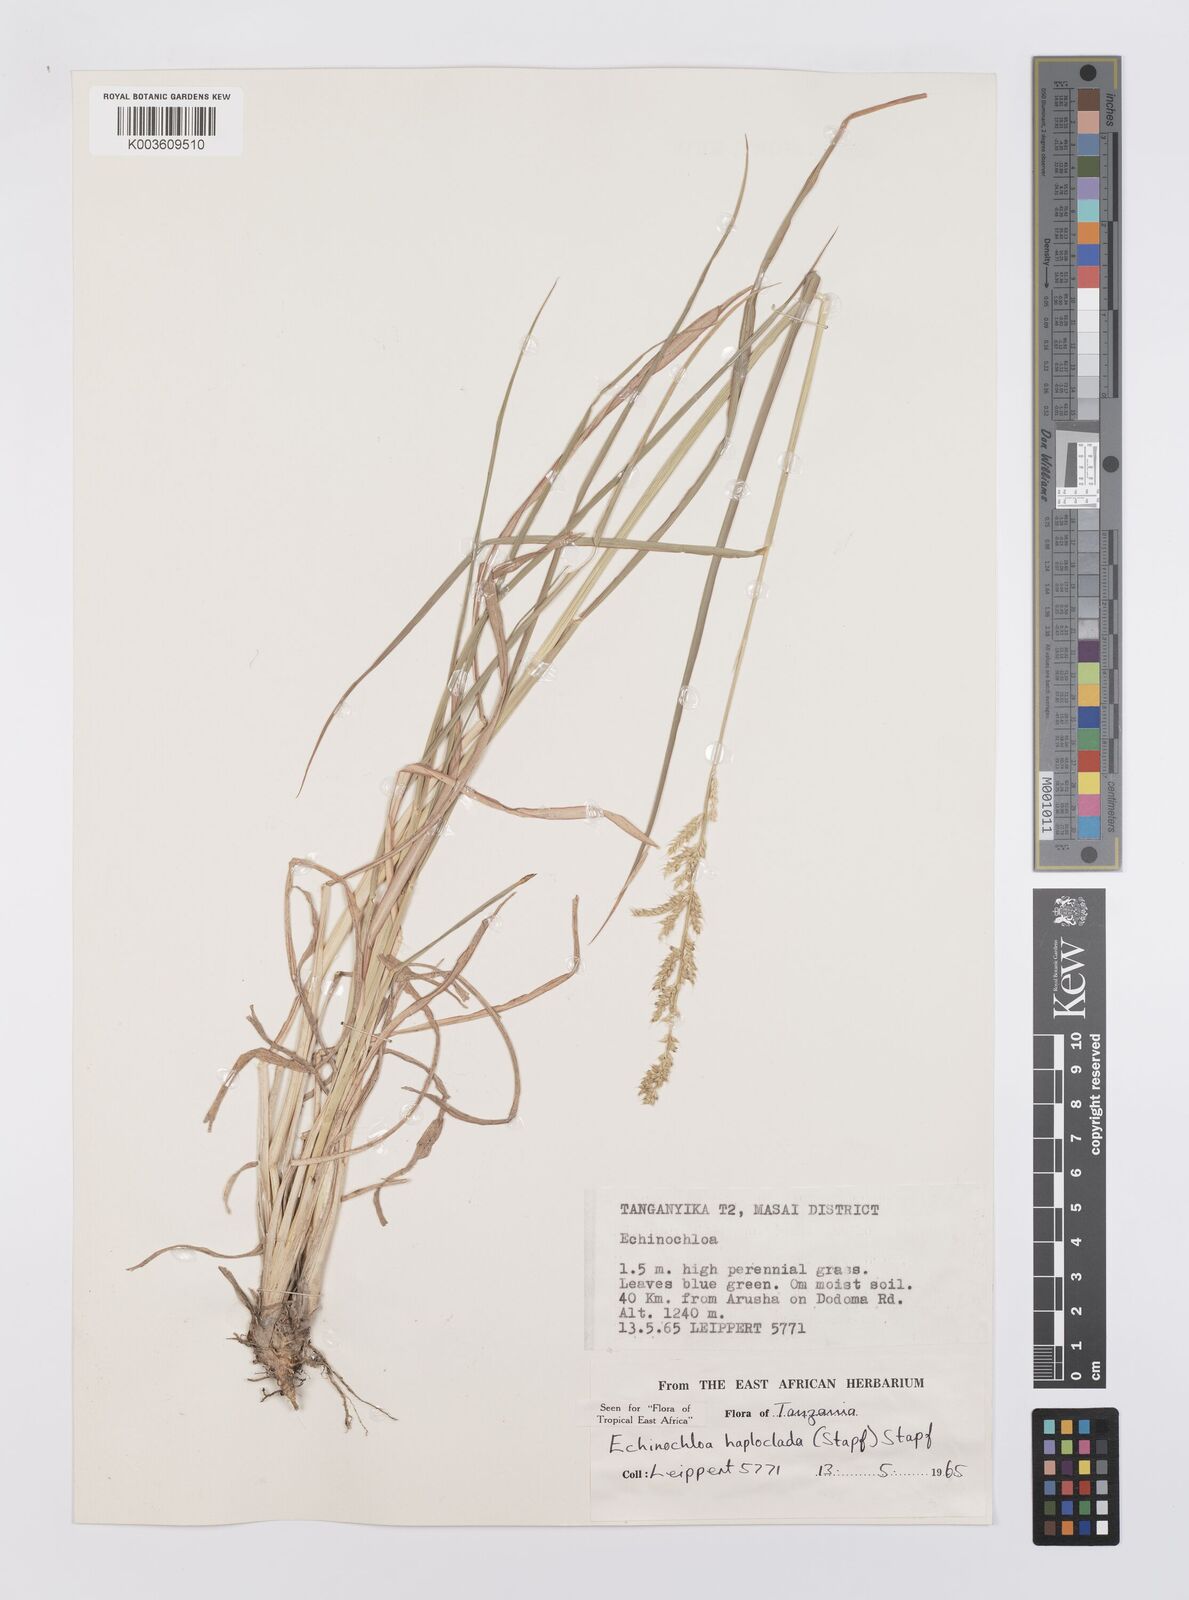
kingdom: Plantae
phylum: Tracheophyta
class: Liliopsida
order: Poales
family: Poaceae
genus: Echinochloa
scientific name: Echinochloa haploclada
